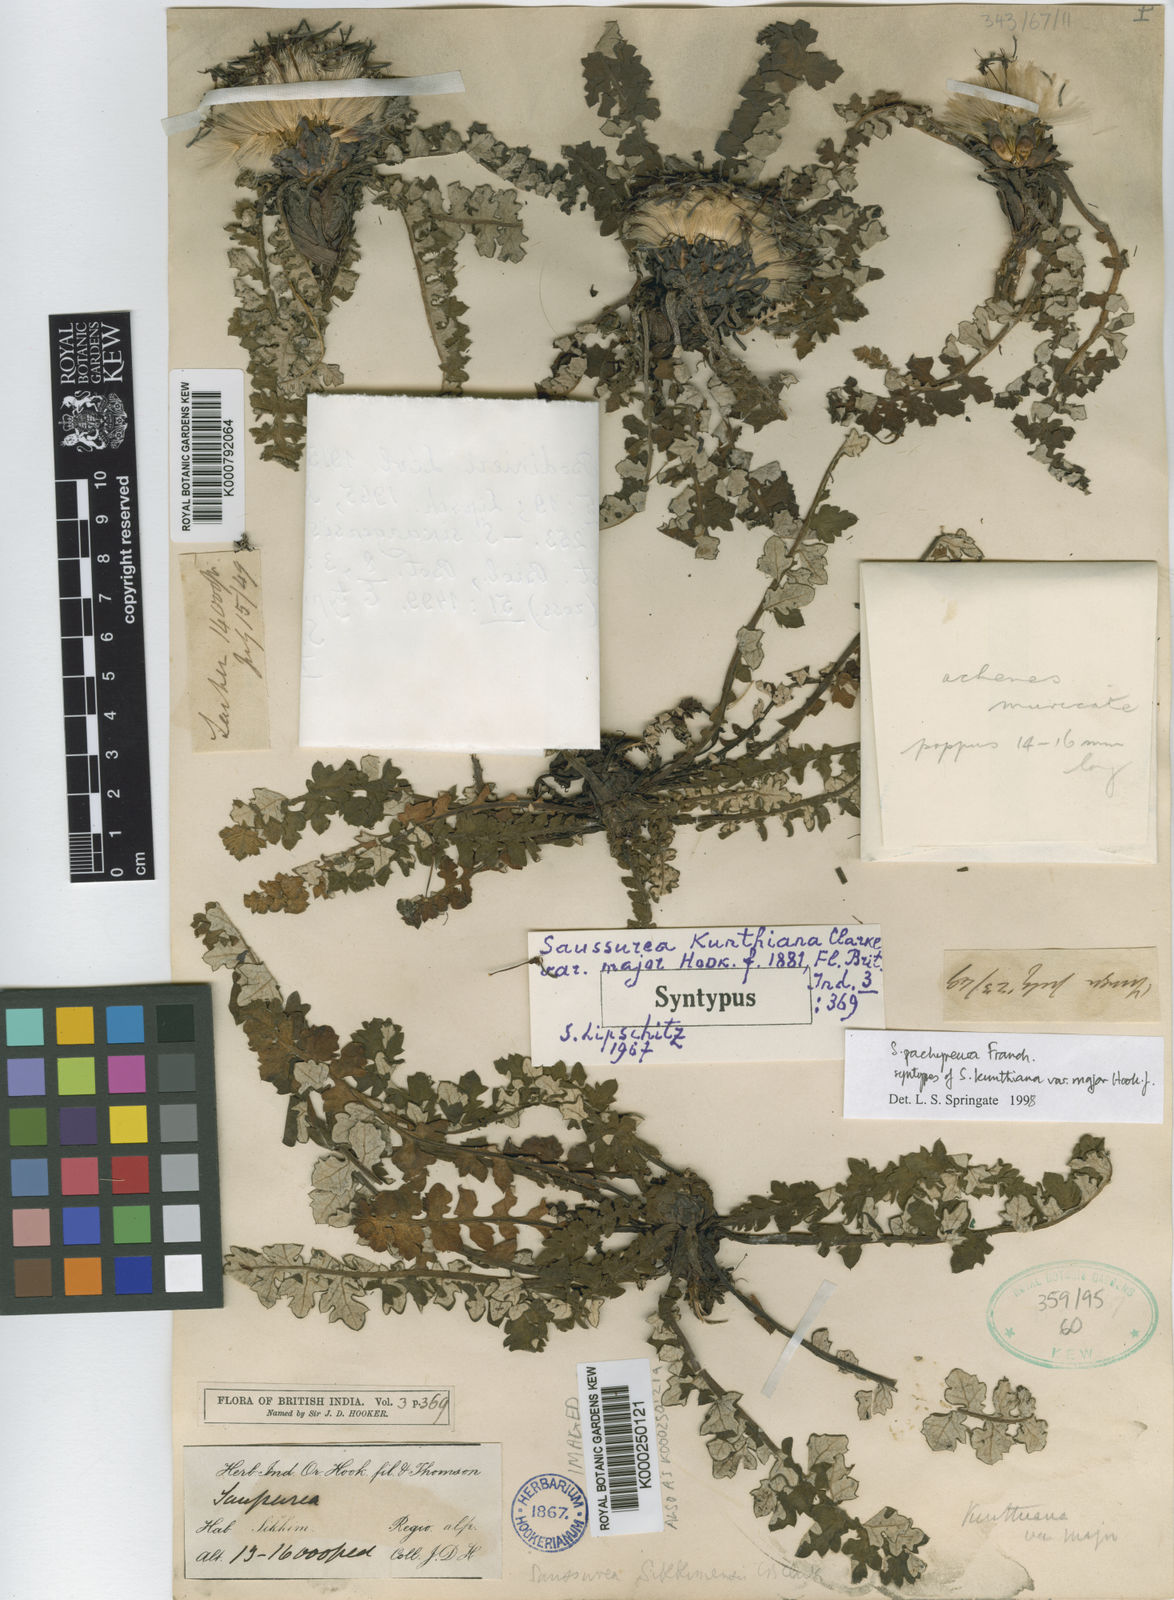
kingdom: Plantae
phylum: Tracheophyta
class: Magnoliopsida
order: Asterales
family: Asteraceae
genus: Saussurea
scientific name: Saussurea pachyneura
